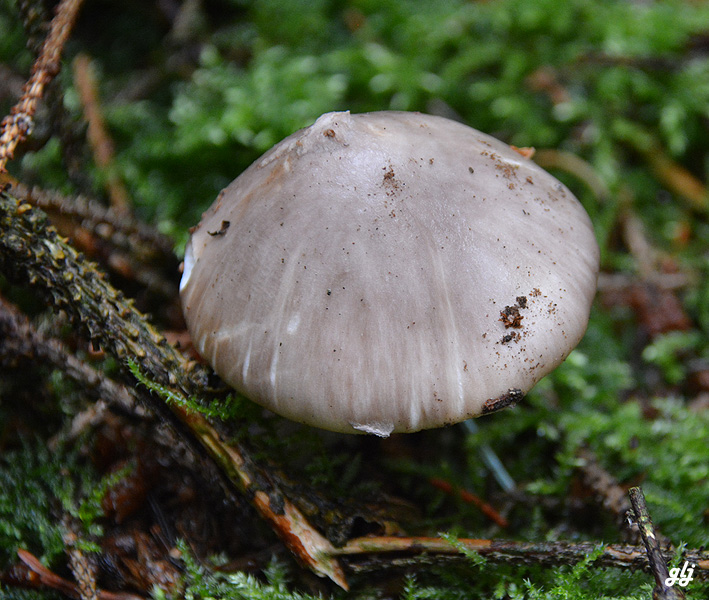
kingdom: Fungi
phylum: Basidiomycota
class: Agaricomycetes
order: Agaricales
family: Amanitaceae
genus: Amanita
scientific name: Amanita porphyria
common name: porfyr-fluesvamp
